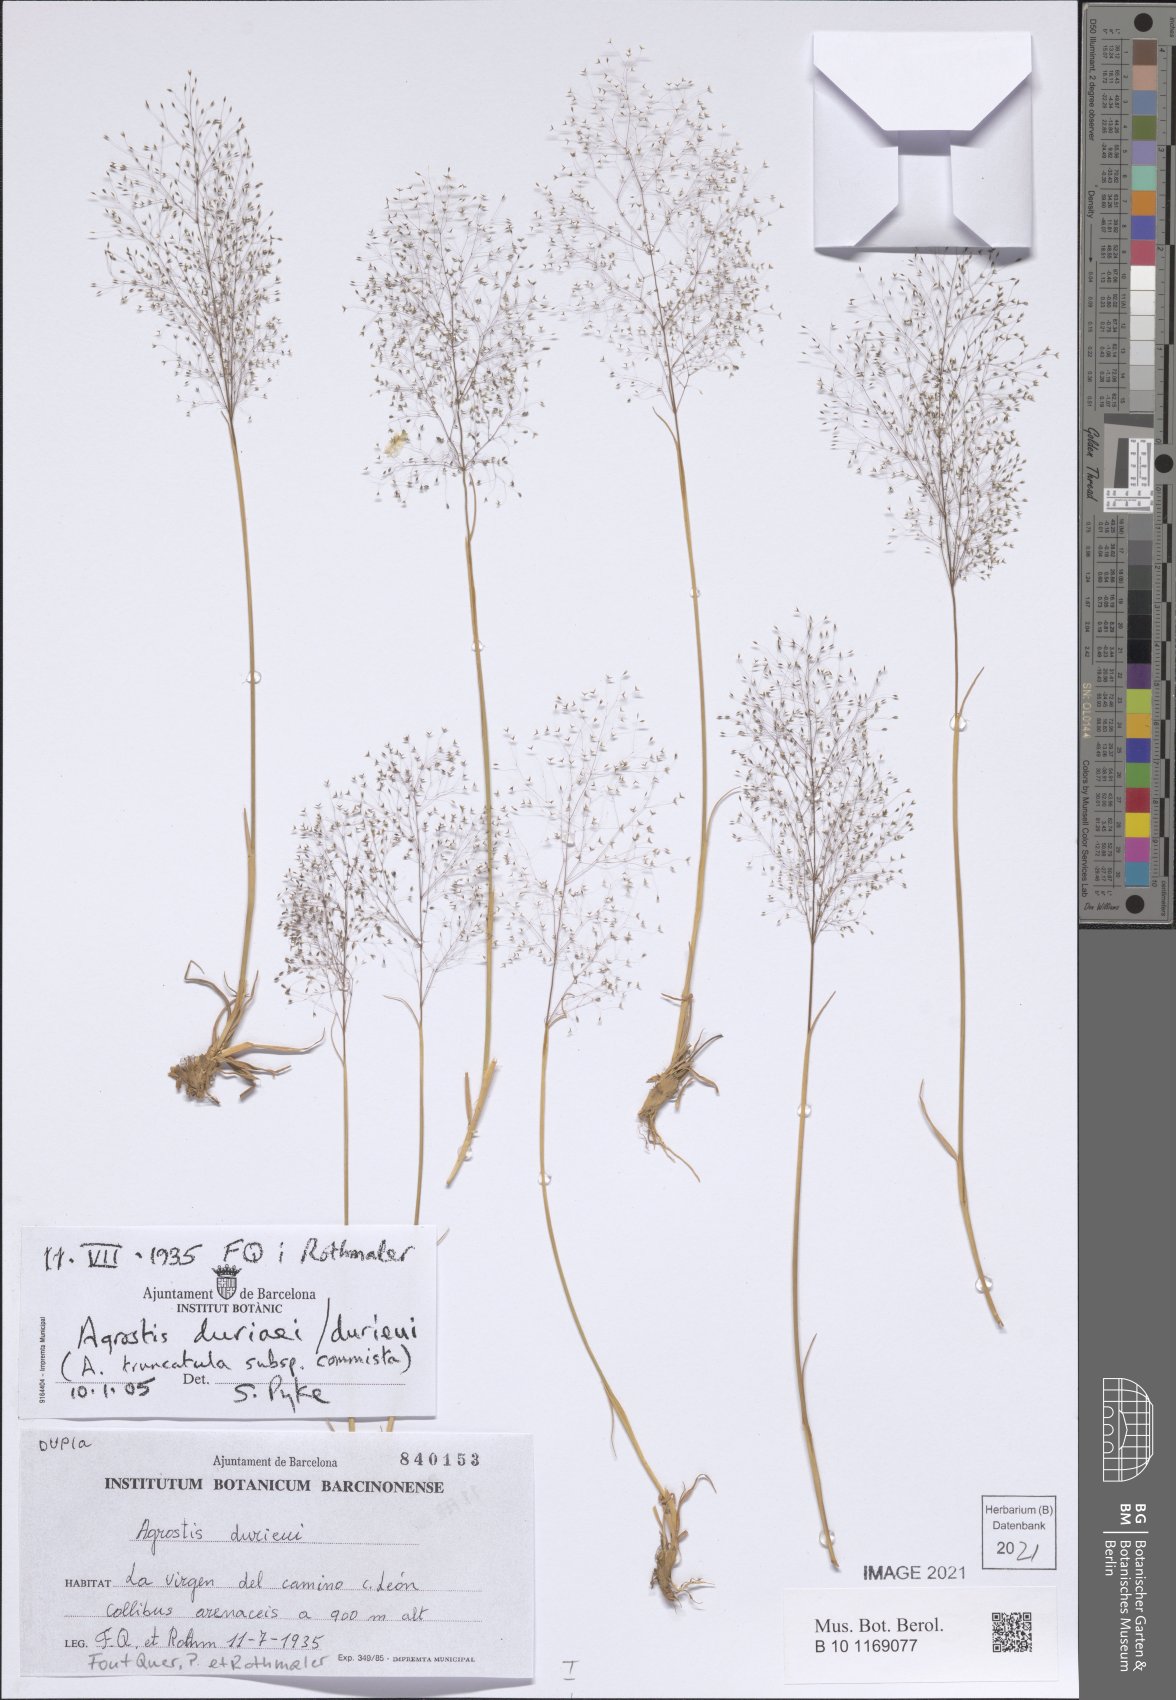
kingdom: Plantae
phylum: Tracheophyta
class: Liliopsida
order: Poales
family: Poaceae
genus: Agrostula
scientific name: Agrostula truncatula
